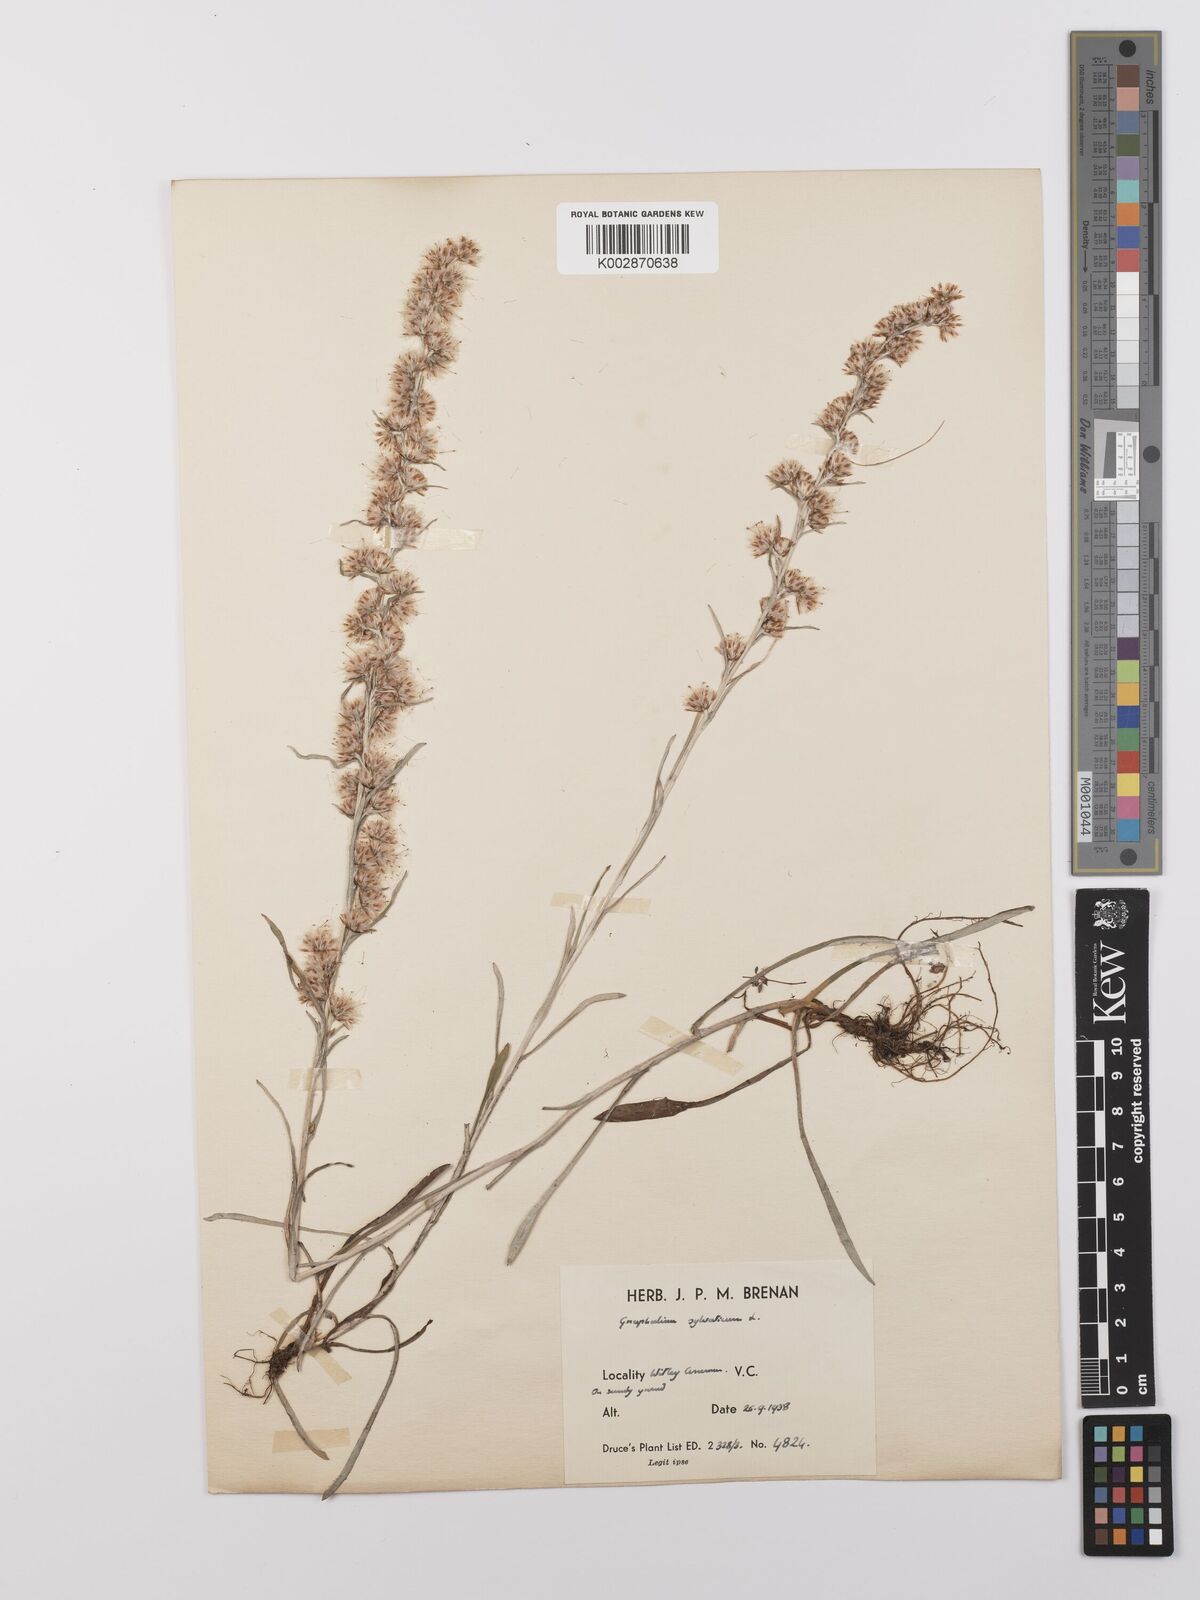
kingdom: Plantae
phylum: Tracheophyta
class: Magnoliopsida
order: Asterales
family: Asteraceae
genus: Omalotheca
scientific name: Omalotheca sylvatica
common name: Heath cudweed
